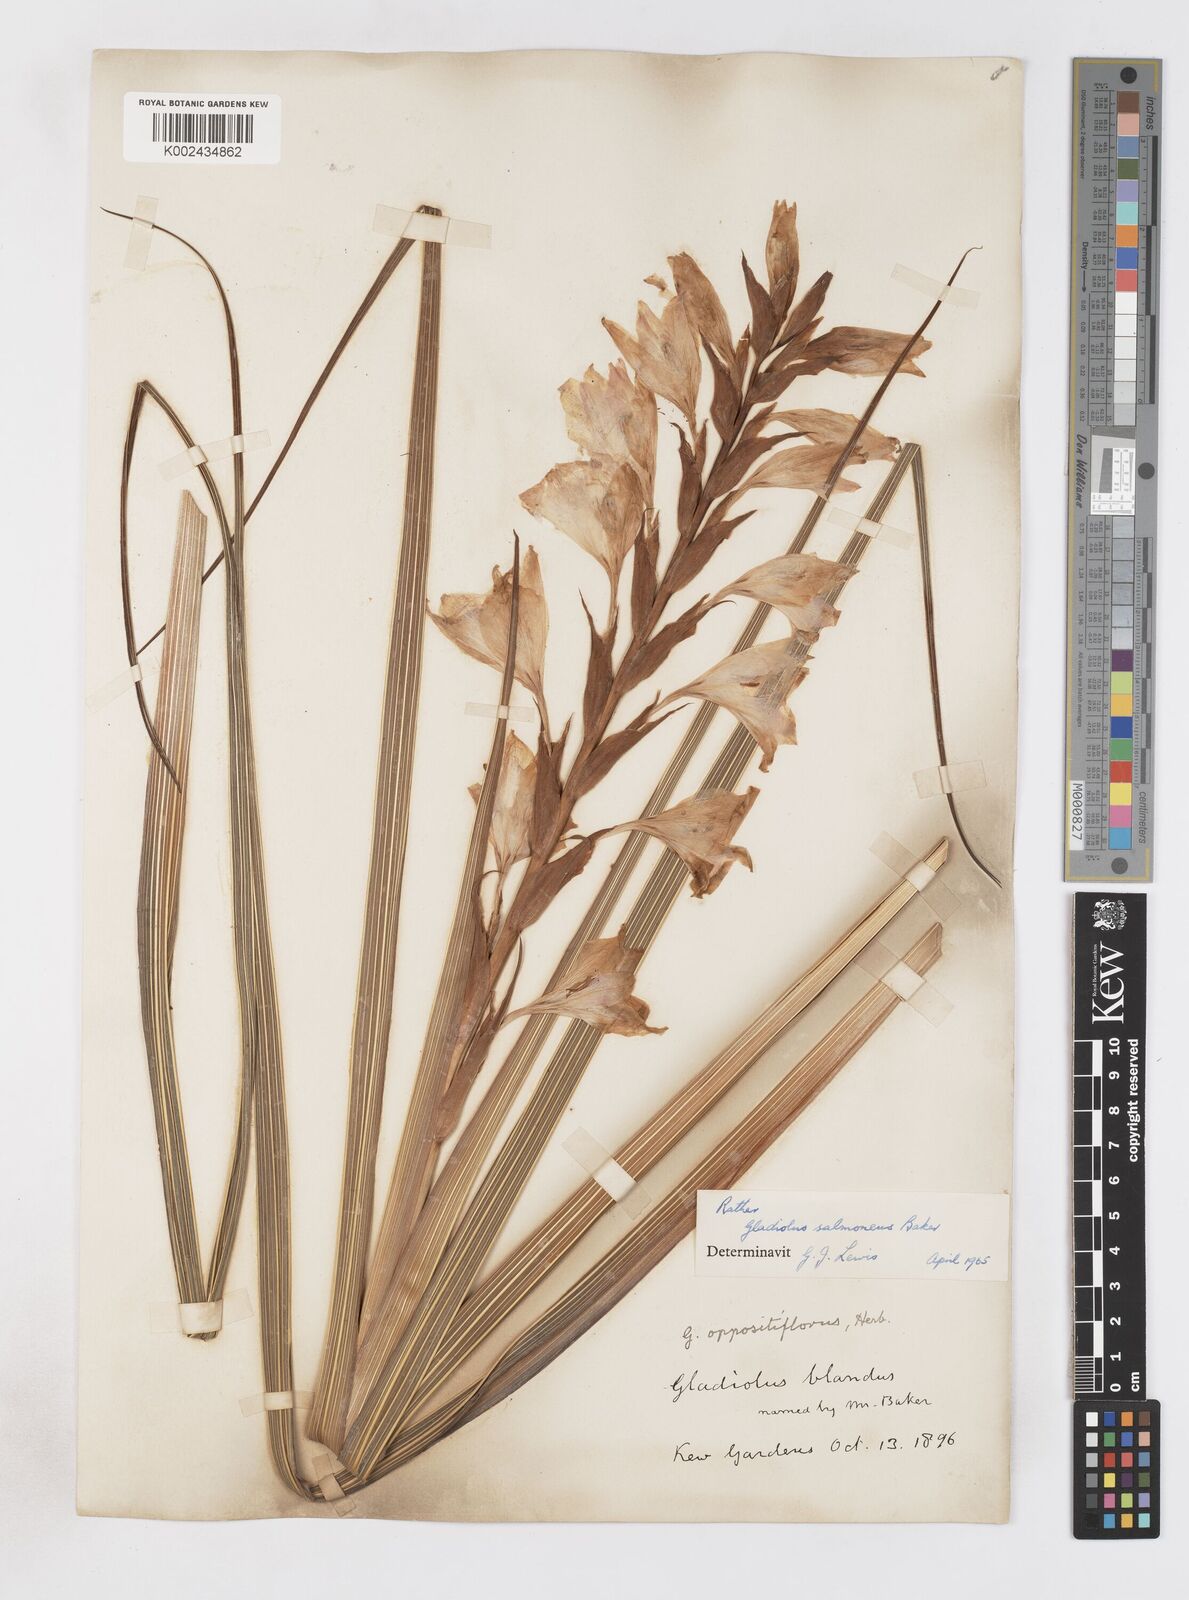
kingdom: Plantae
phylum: Tracheophyta
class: Liliopsida
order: Asparagales
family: Iridaceae
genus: Gladiolus
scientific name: Gladiolus oppositiflorus
